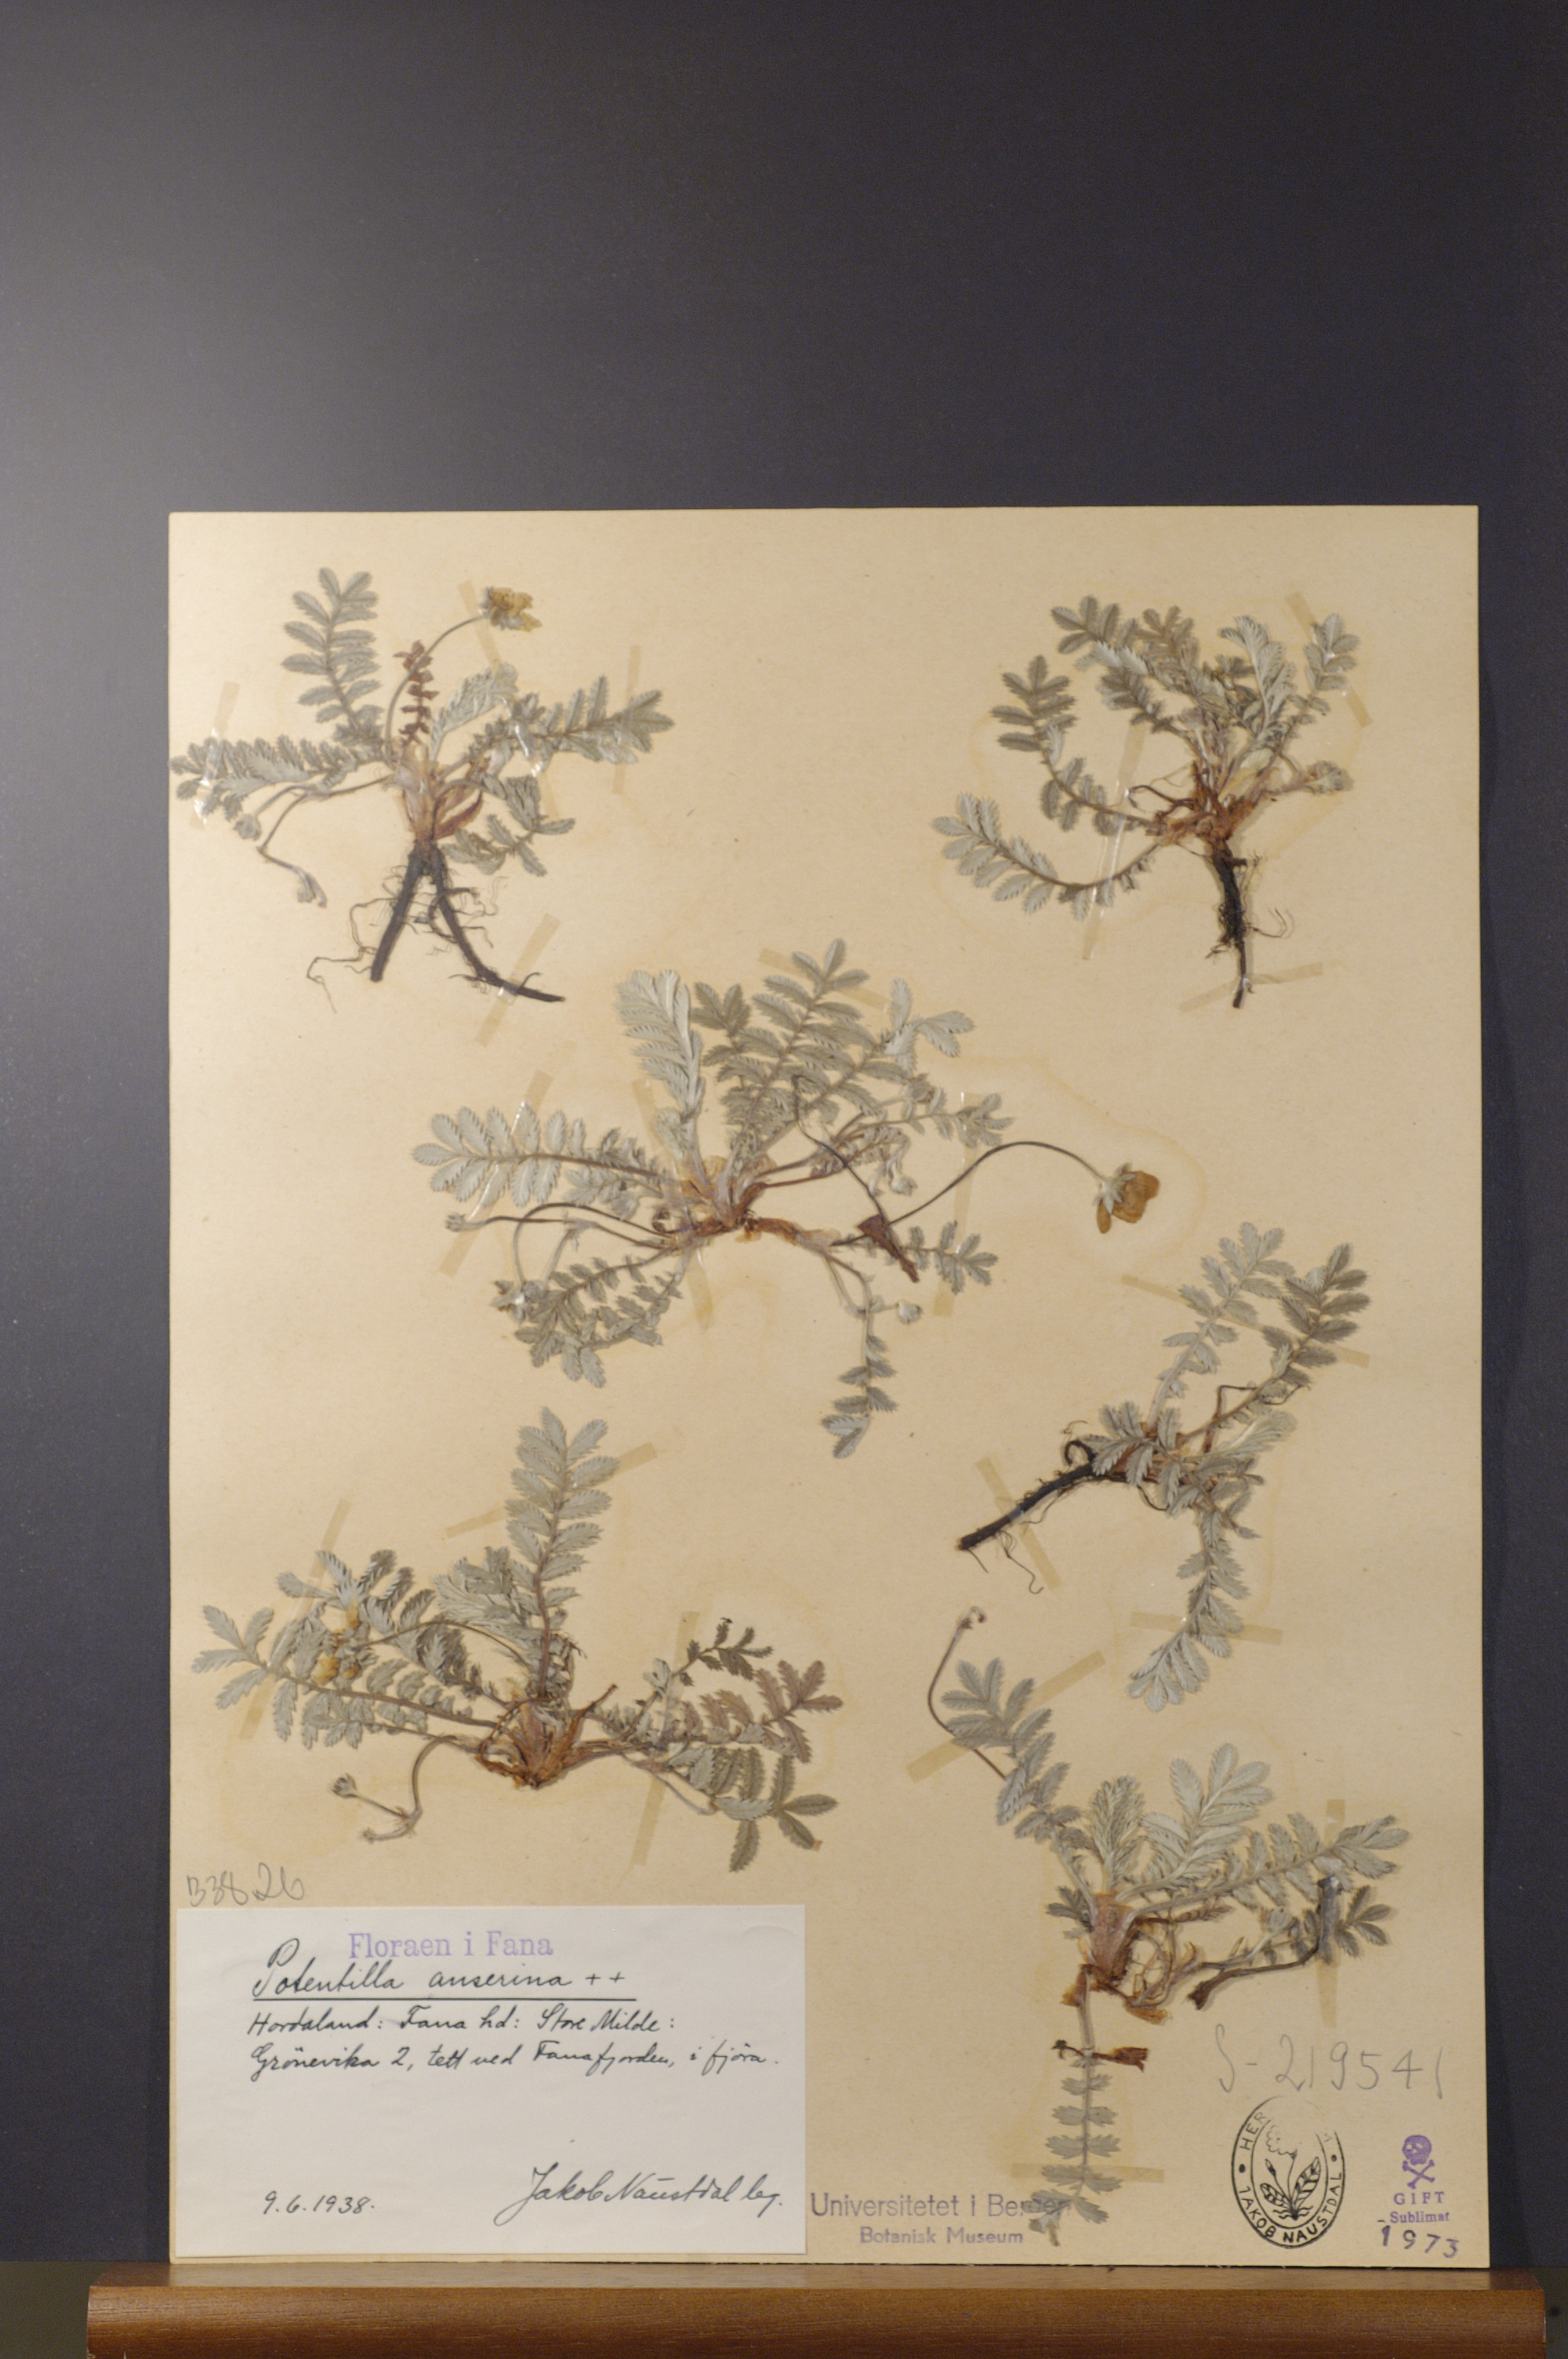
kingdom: Plantae
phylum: Tracheophyta
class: Magnoliopsida
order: Rosales
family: Rosaceae
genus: Argentina
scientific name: Argentina anserina
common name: Common silverweed
